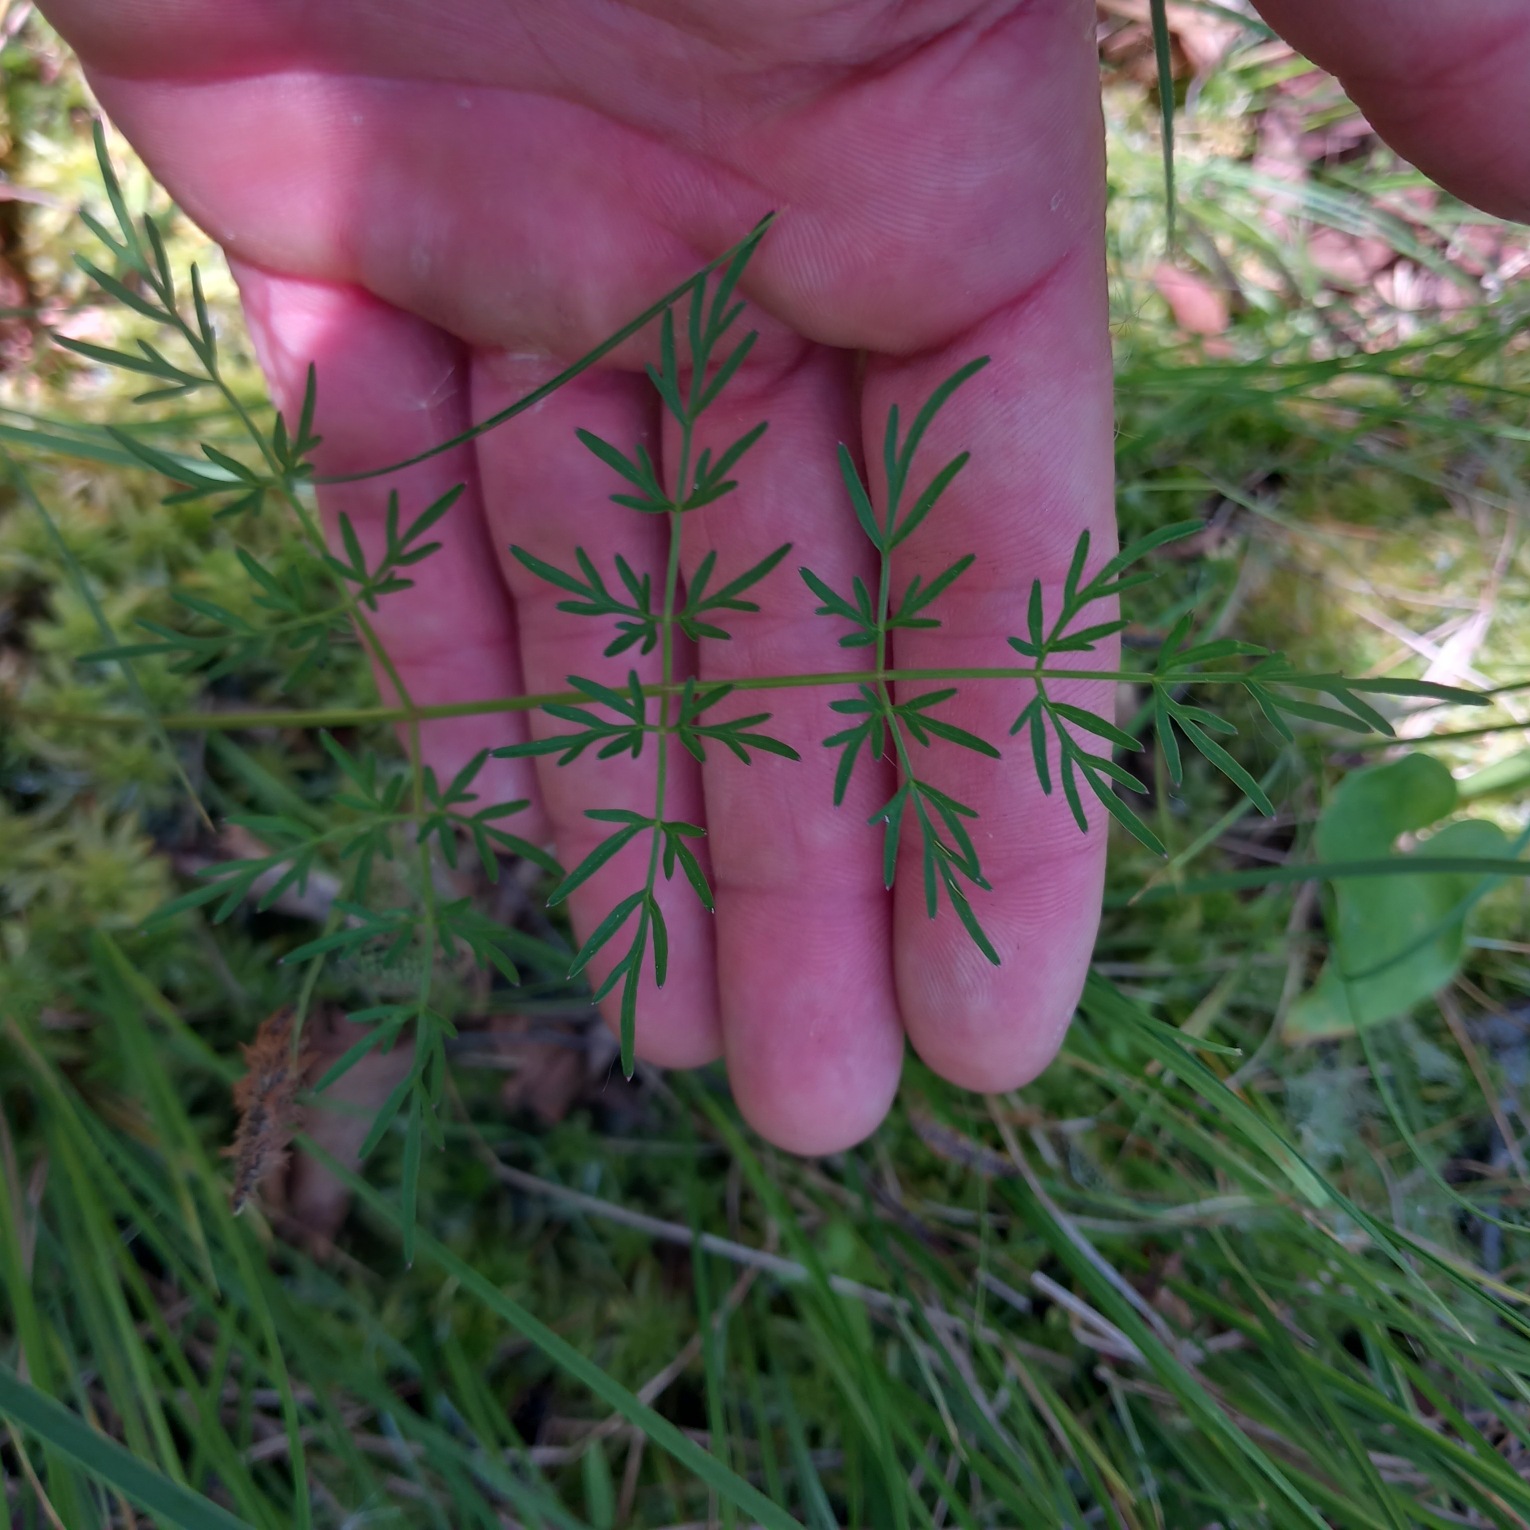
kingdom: Plantae
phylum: Tracheophyta
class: Magnoliopsida
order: Apiales
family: Apiaceae
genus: Thysselinum
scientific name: Thysselinum palustre
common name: Kær-svovlrod
